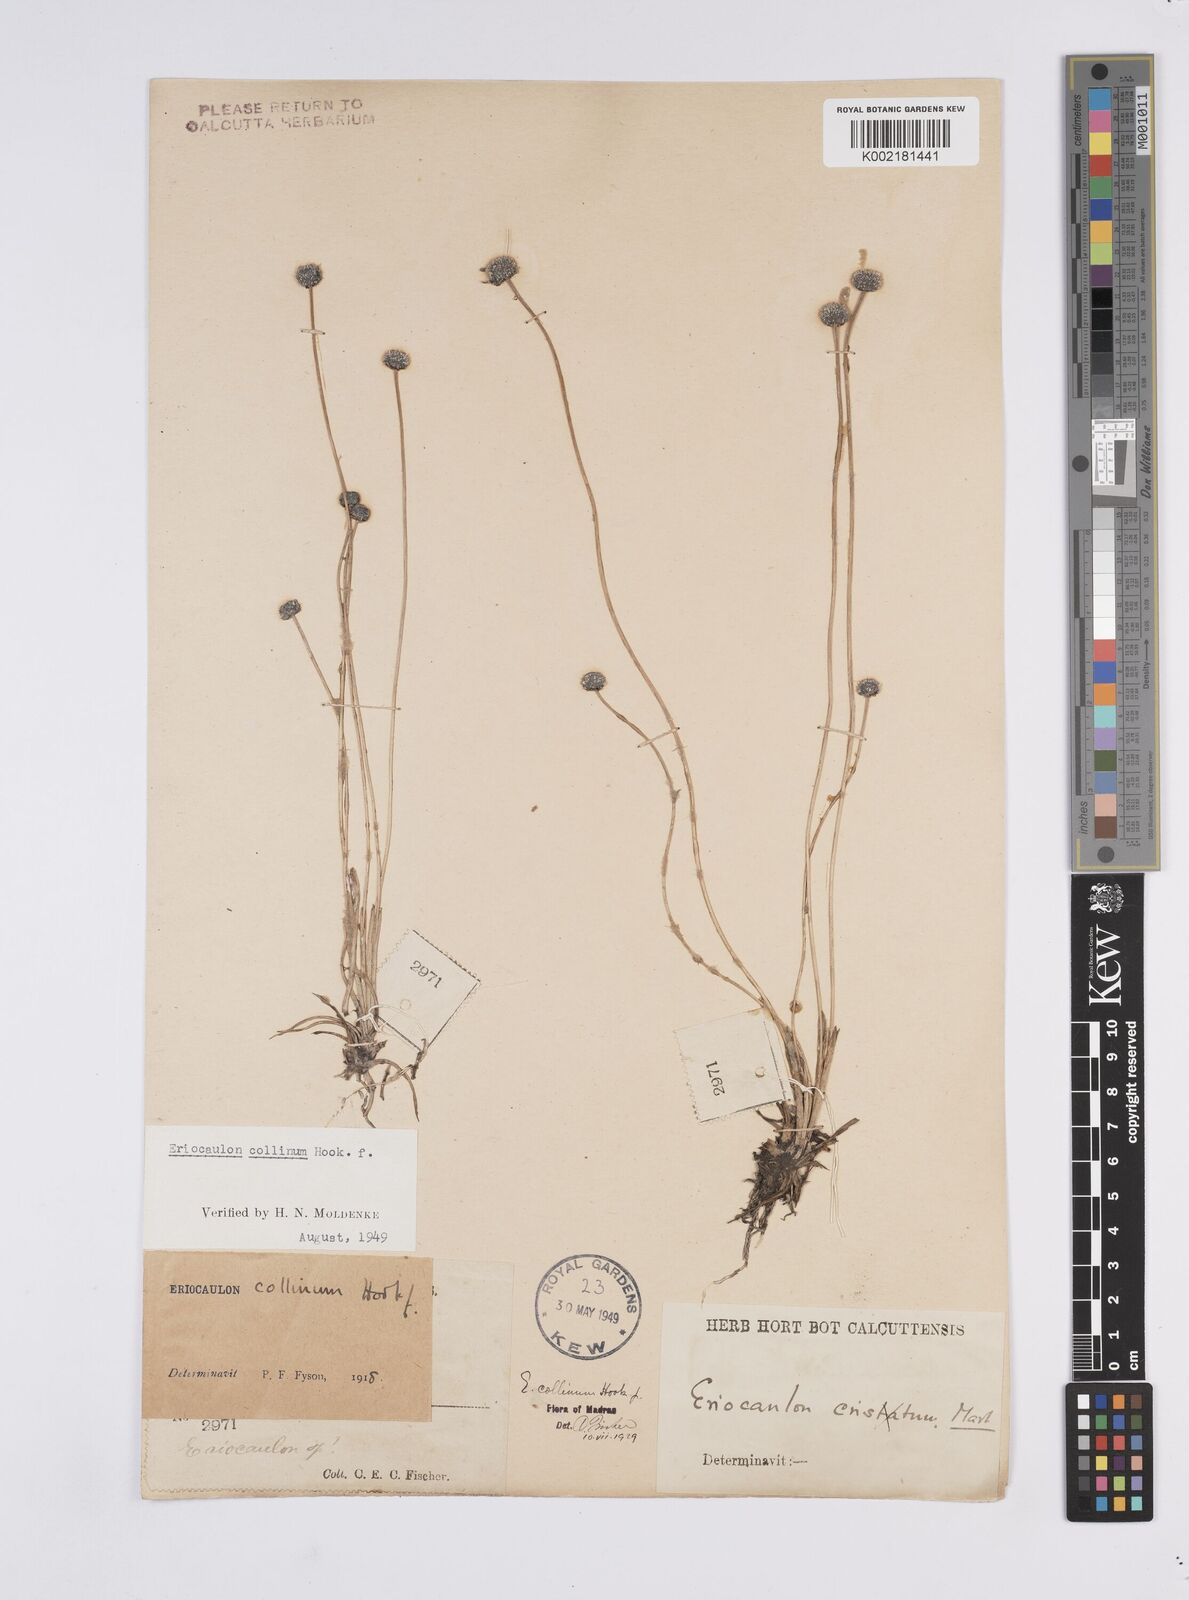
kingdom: Plantae
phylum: Tracheophyta
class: Liliopsida
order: Poales
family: Eriocaulaceae
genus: Eriocaulon
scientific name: Eriocaulon odoratum
